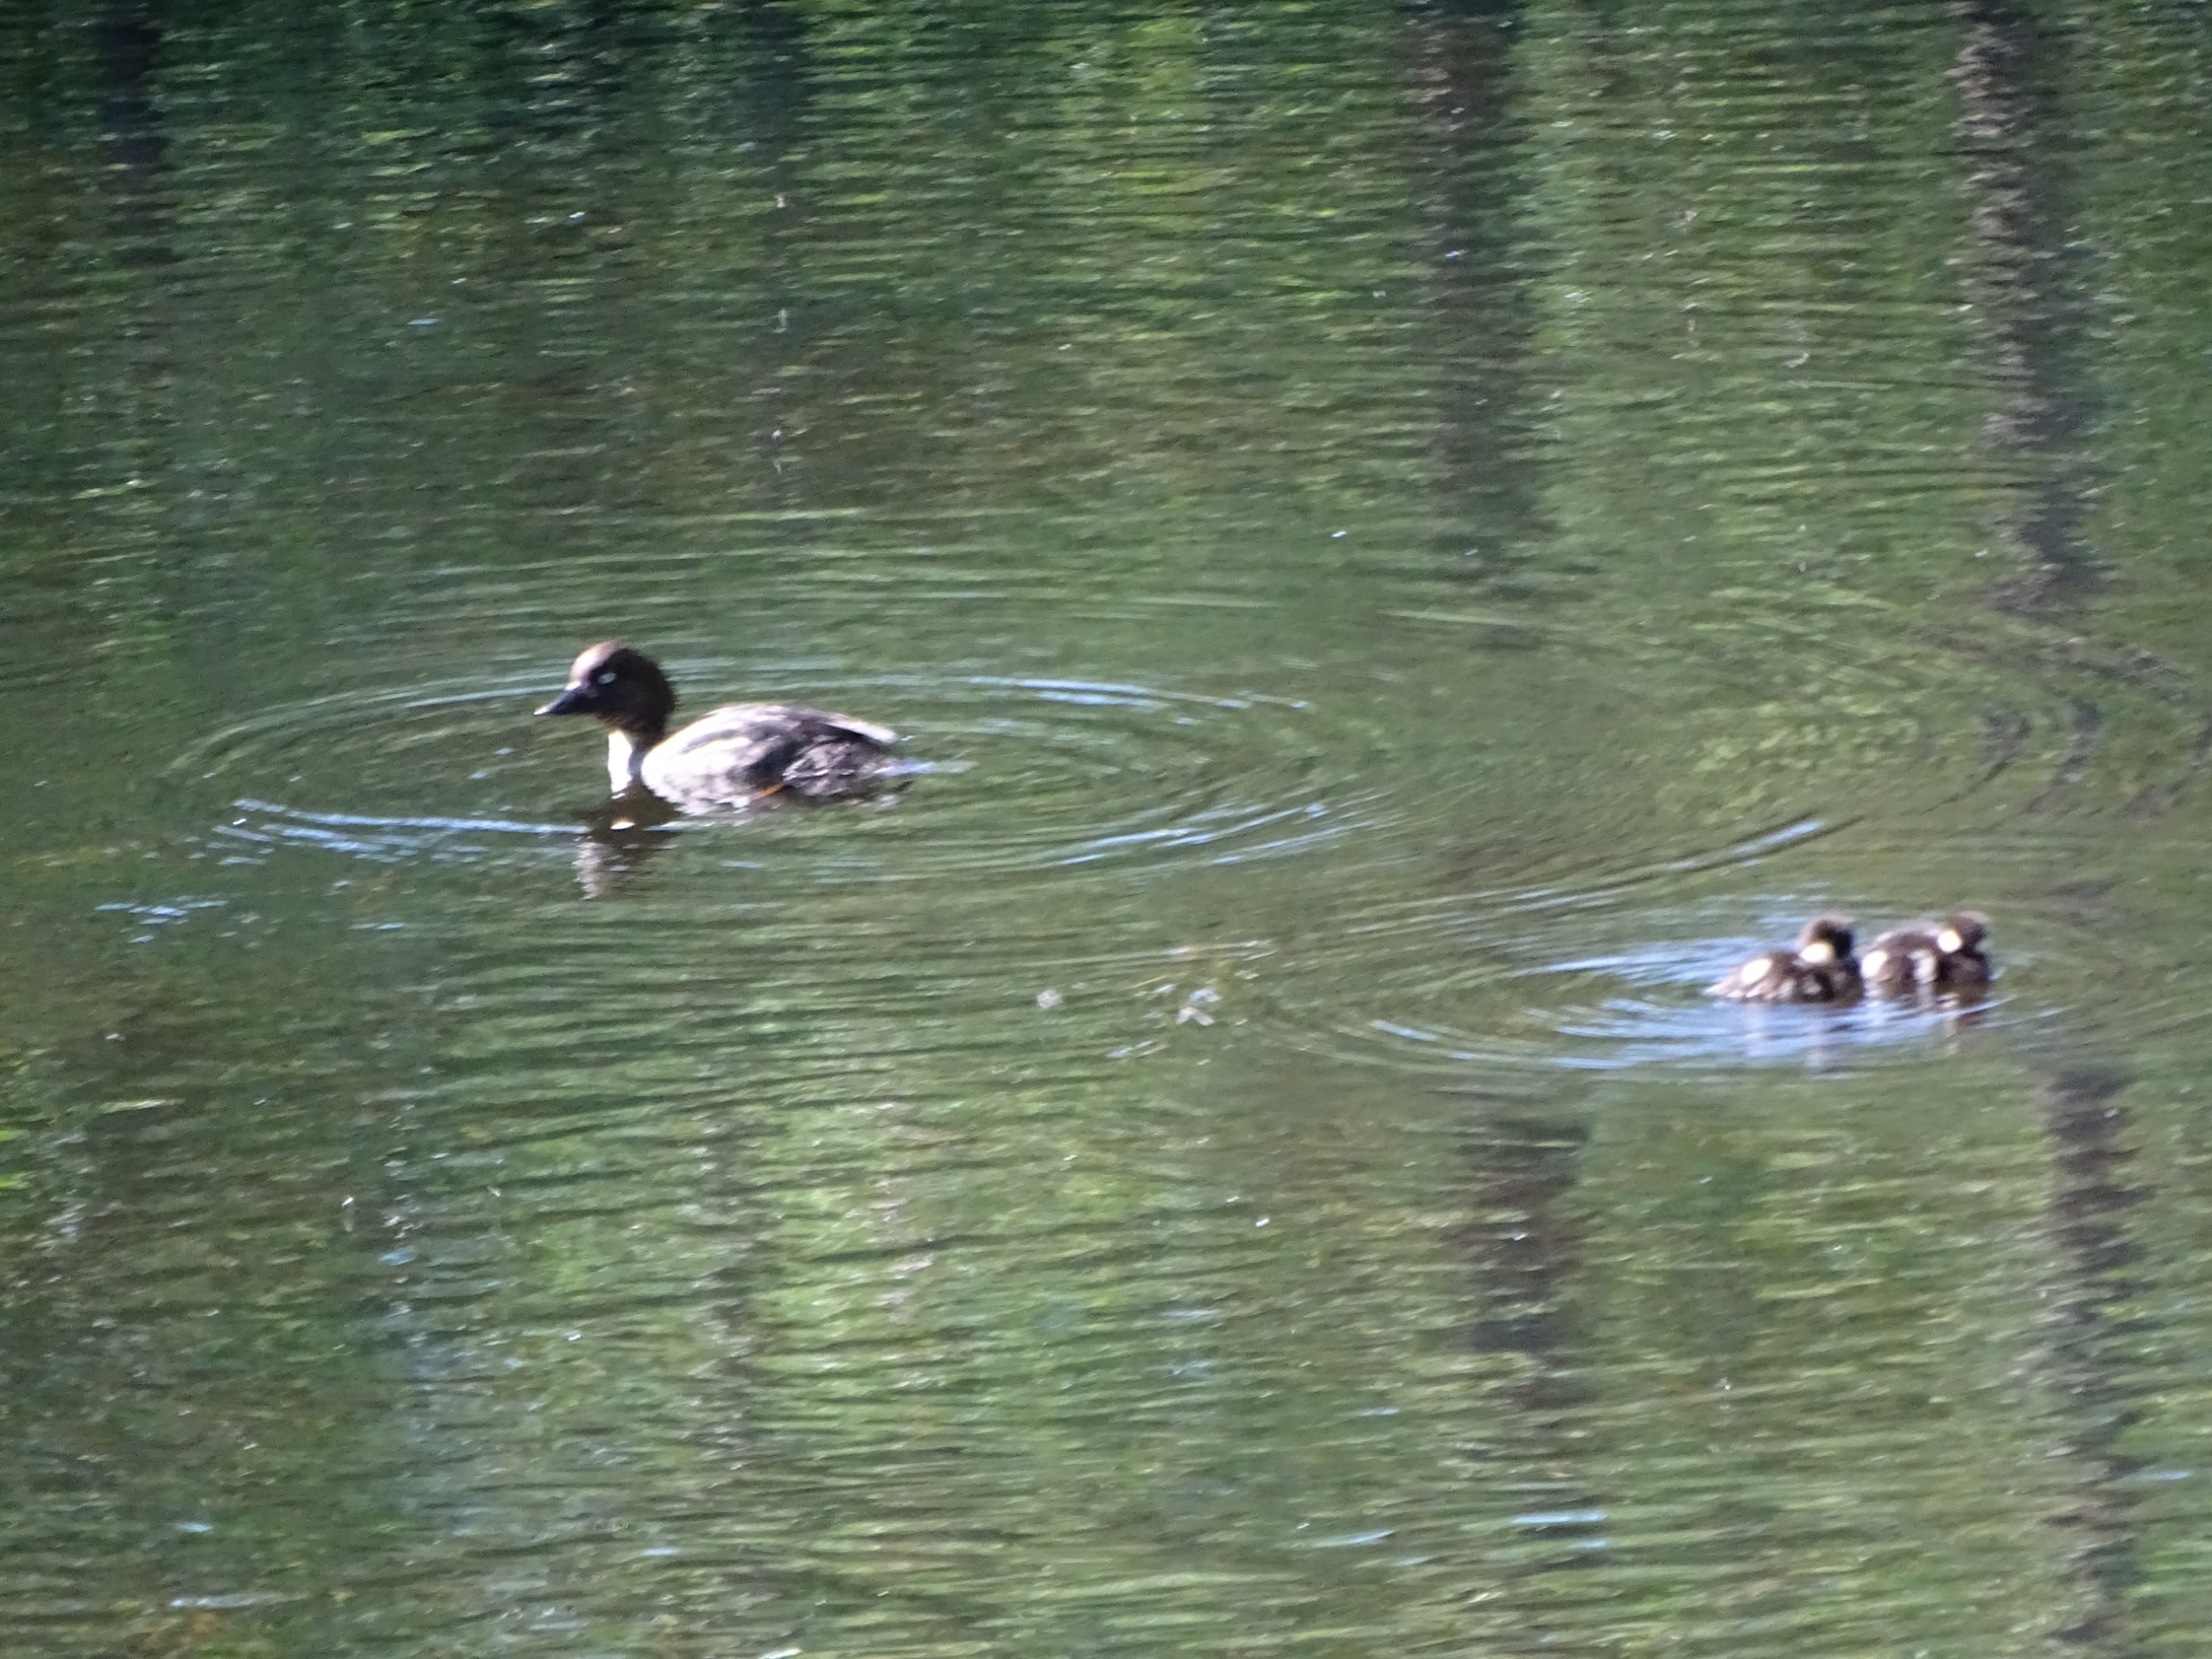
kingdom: Animalia
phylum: Chordata
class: Aves
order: Anseriformes
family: Anatidae
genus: Bucephala
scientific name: Bucephala clangula
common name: Hvinand
